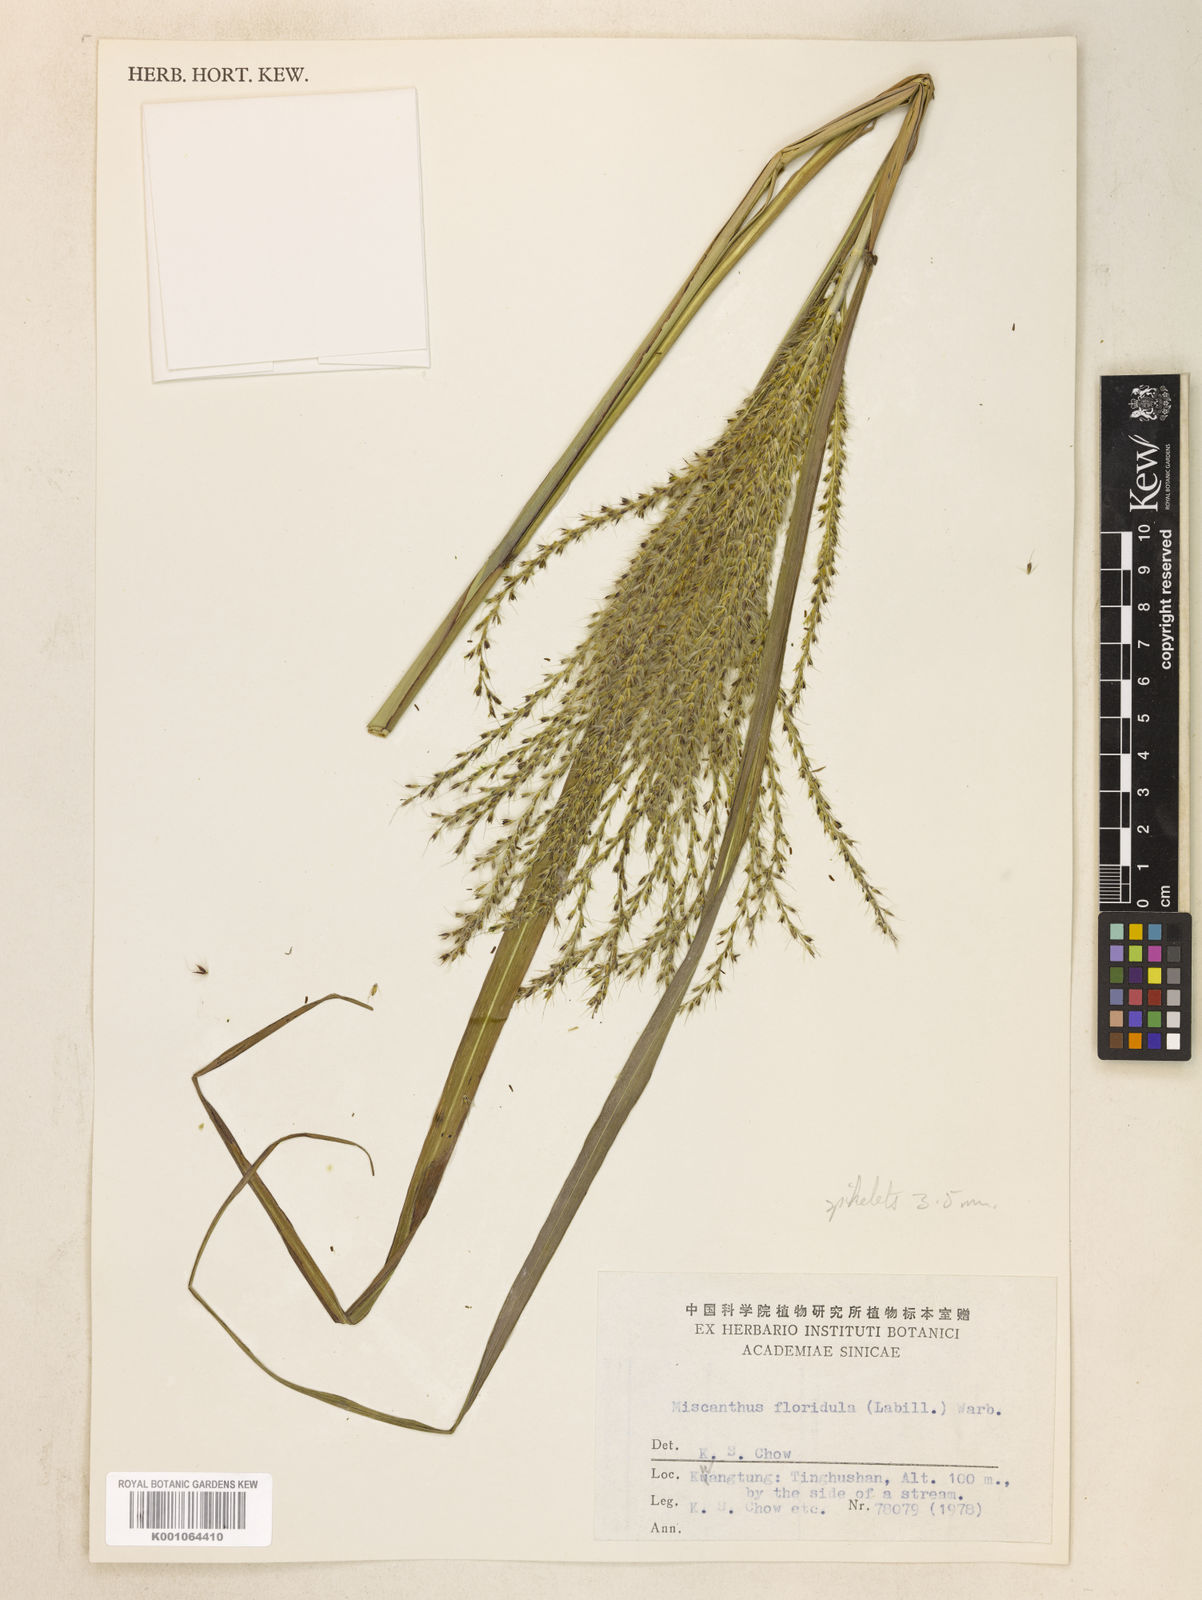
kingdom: Plantae
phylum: Tracheophyta
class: Liliopsida
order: Poales
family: Poaceae
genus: Miscanthus
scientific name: Miscanthus sinensis
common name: Chinese silvergrass
